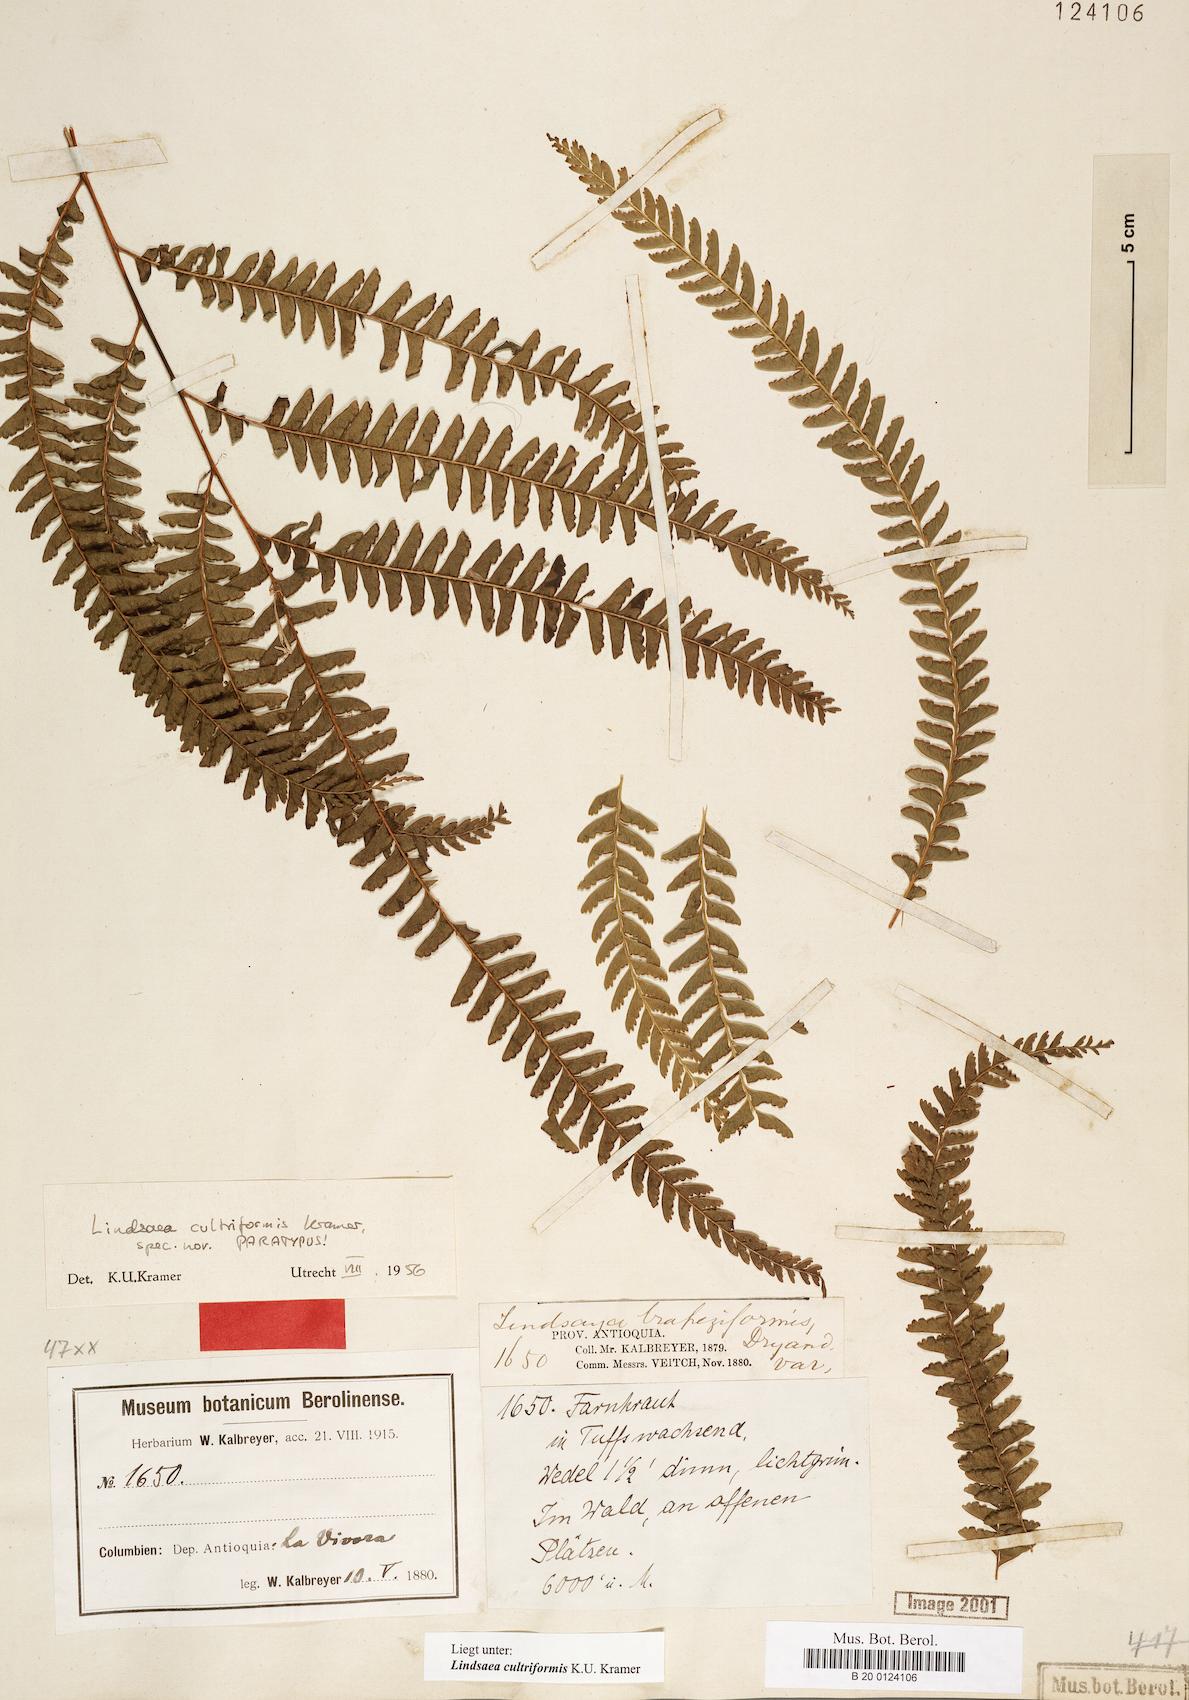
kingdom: Plantae
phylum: Tracheophyta
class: Polypodiopsida
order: Polypodiales
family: Lindsaeaceae
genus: Lindsaea
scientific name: Lindsaea cultriformis
